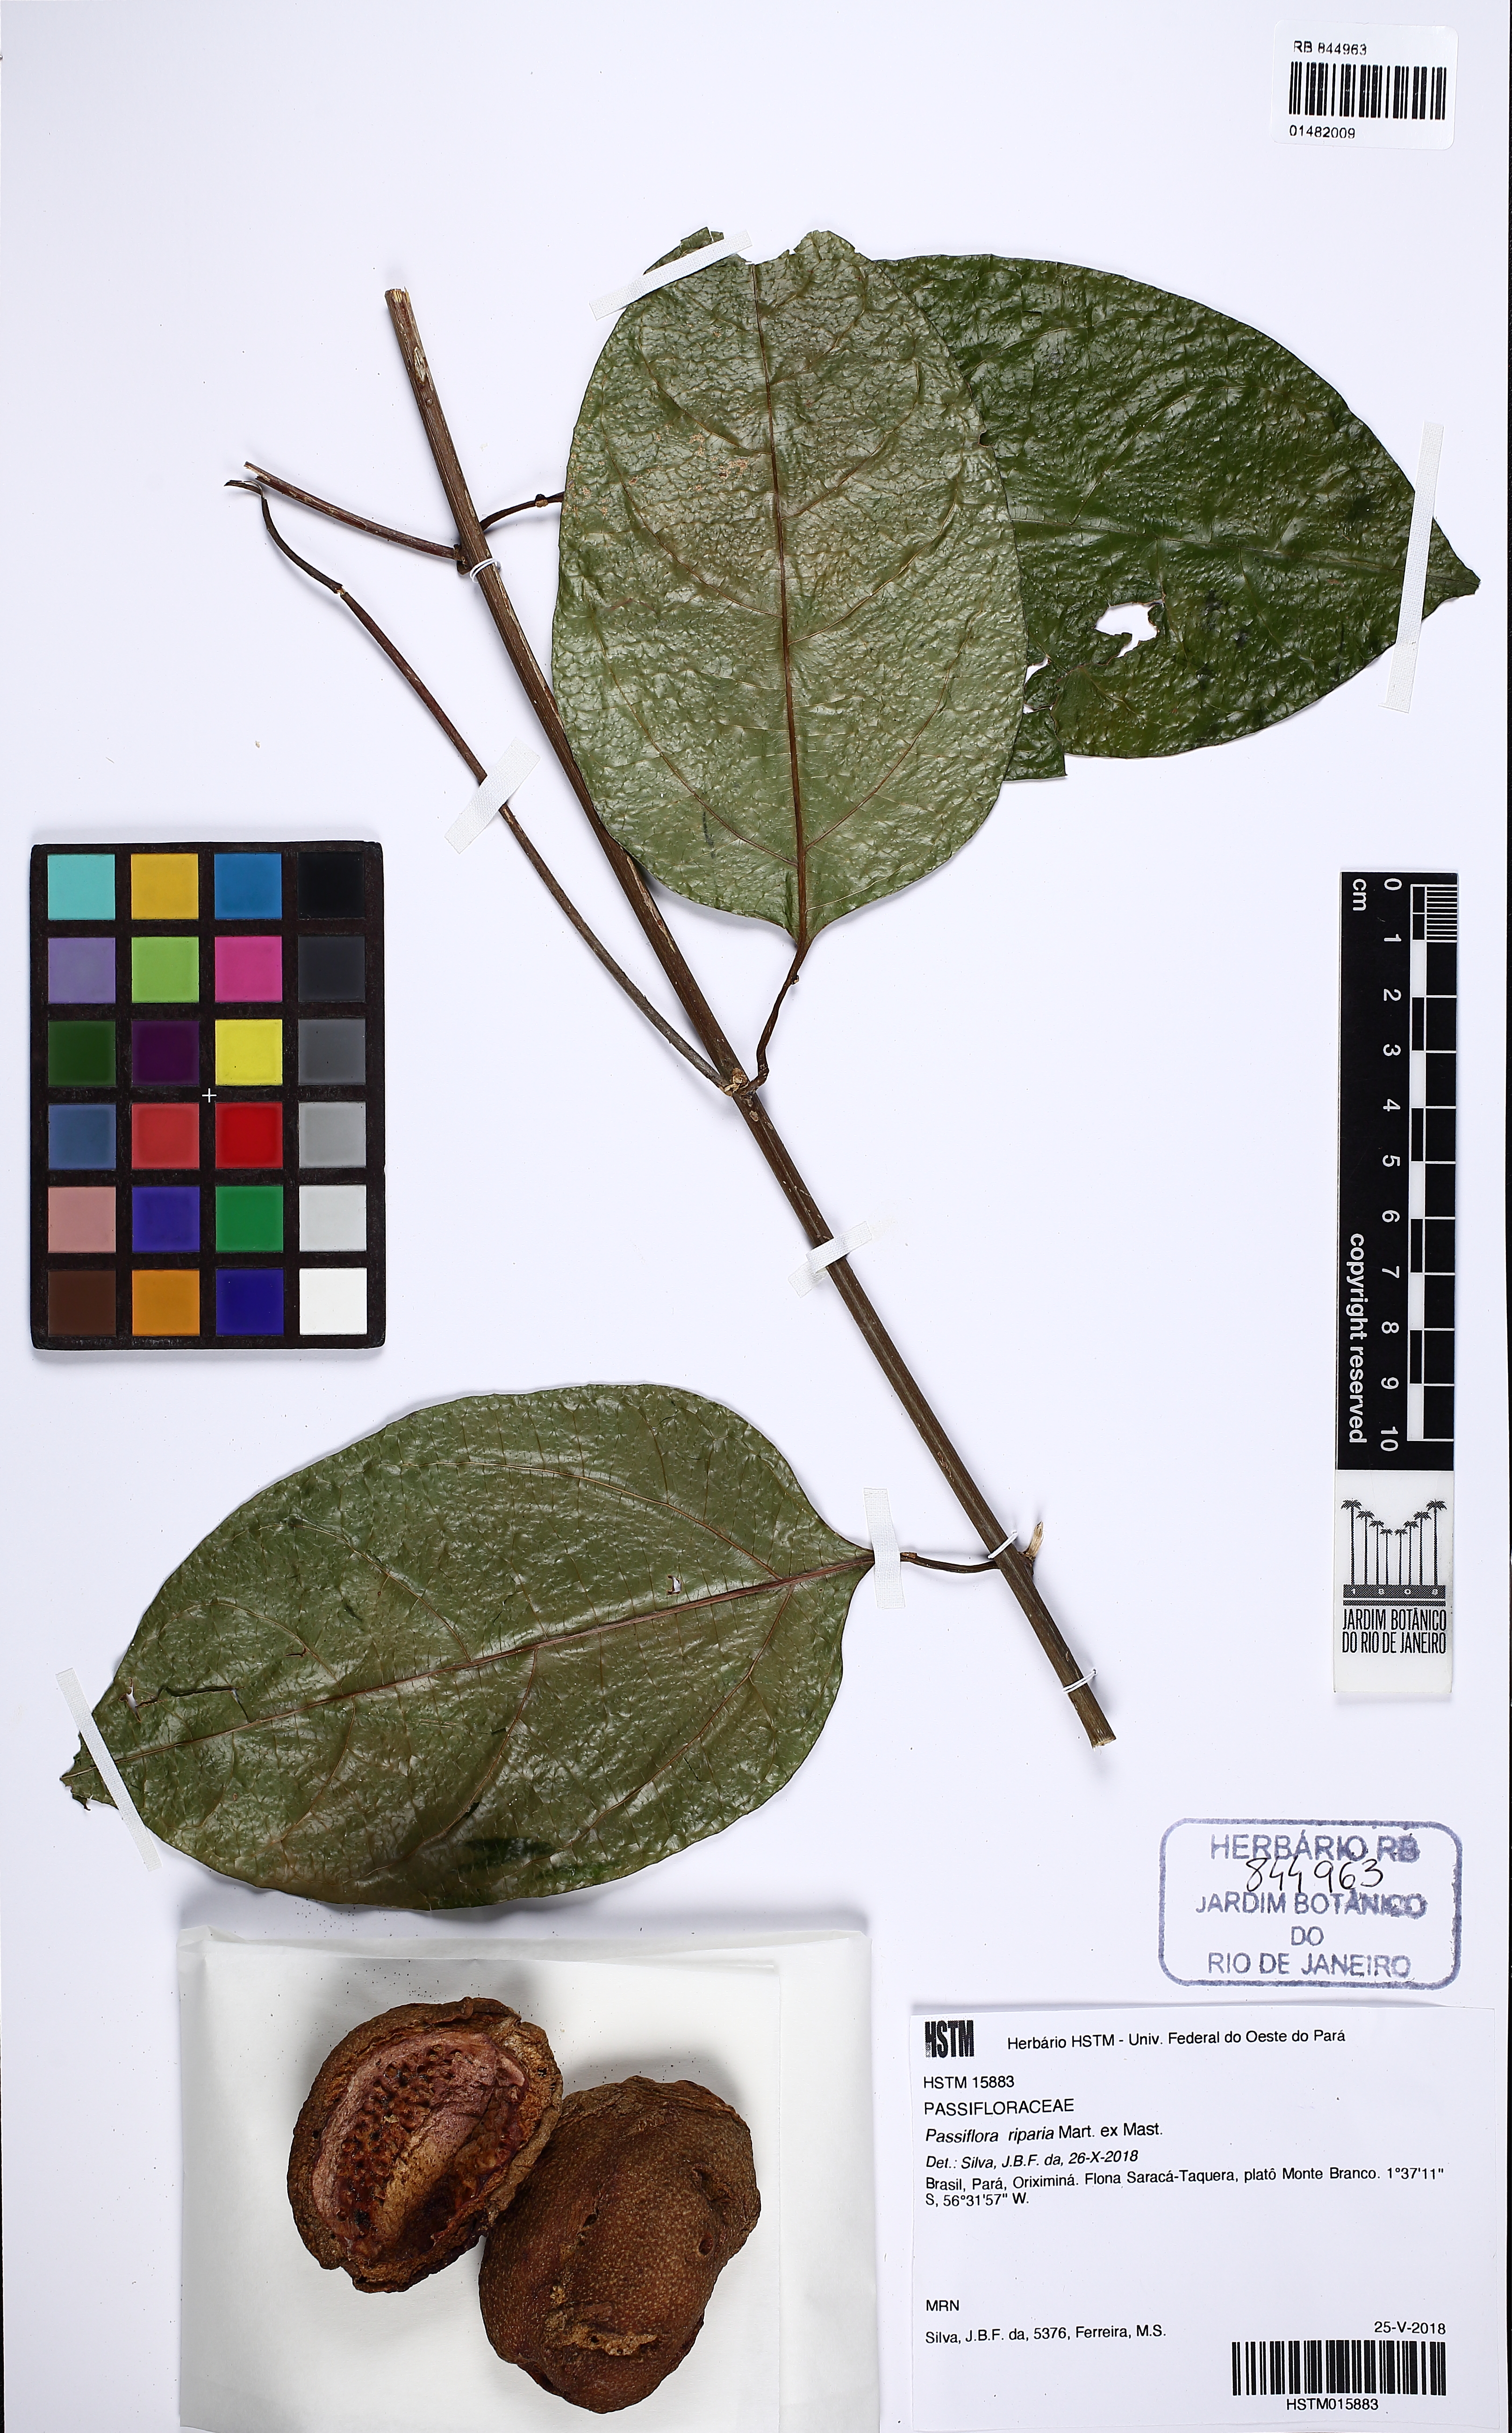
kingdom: Plantae
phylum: Tracheophyta
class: Magnoliopsida
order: Malpighiales
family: Passifloraceae
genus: Passiflora
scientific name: Passiflora riparia
